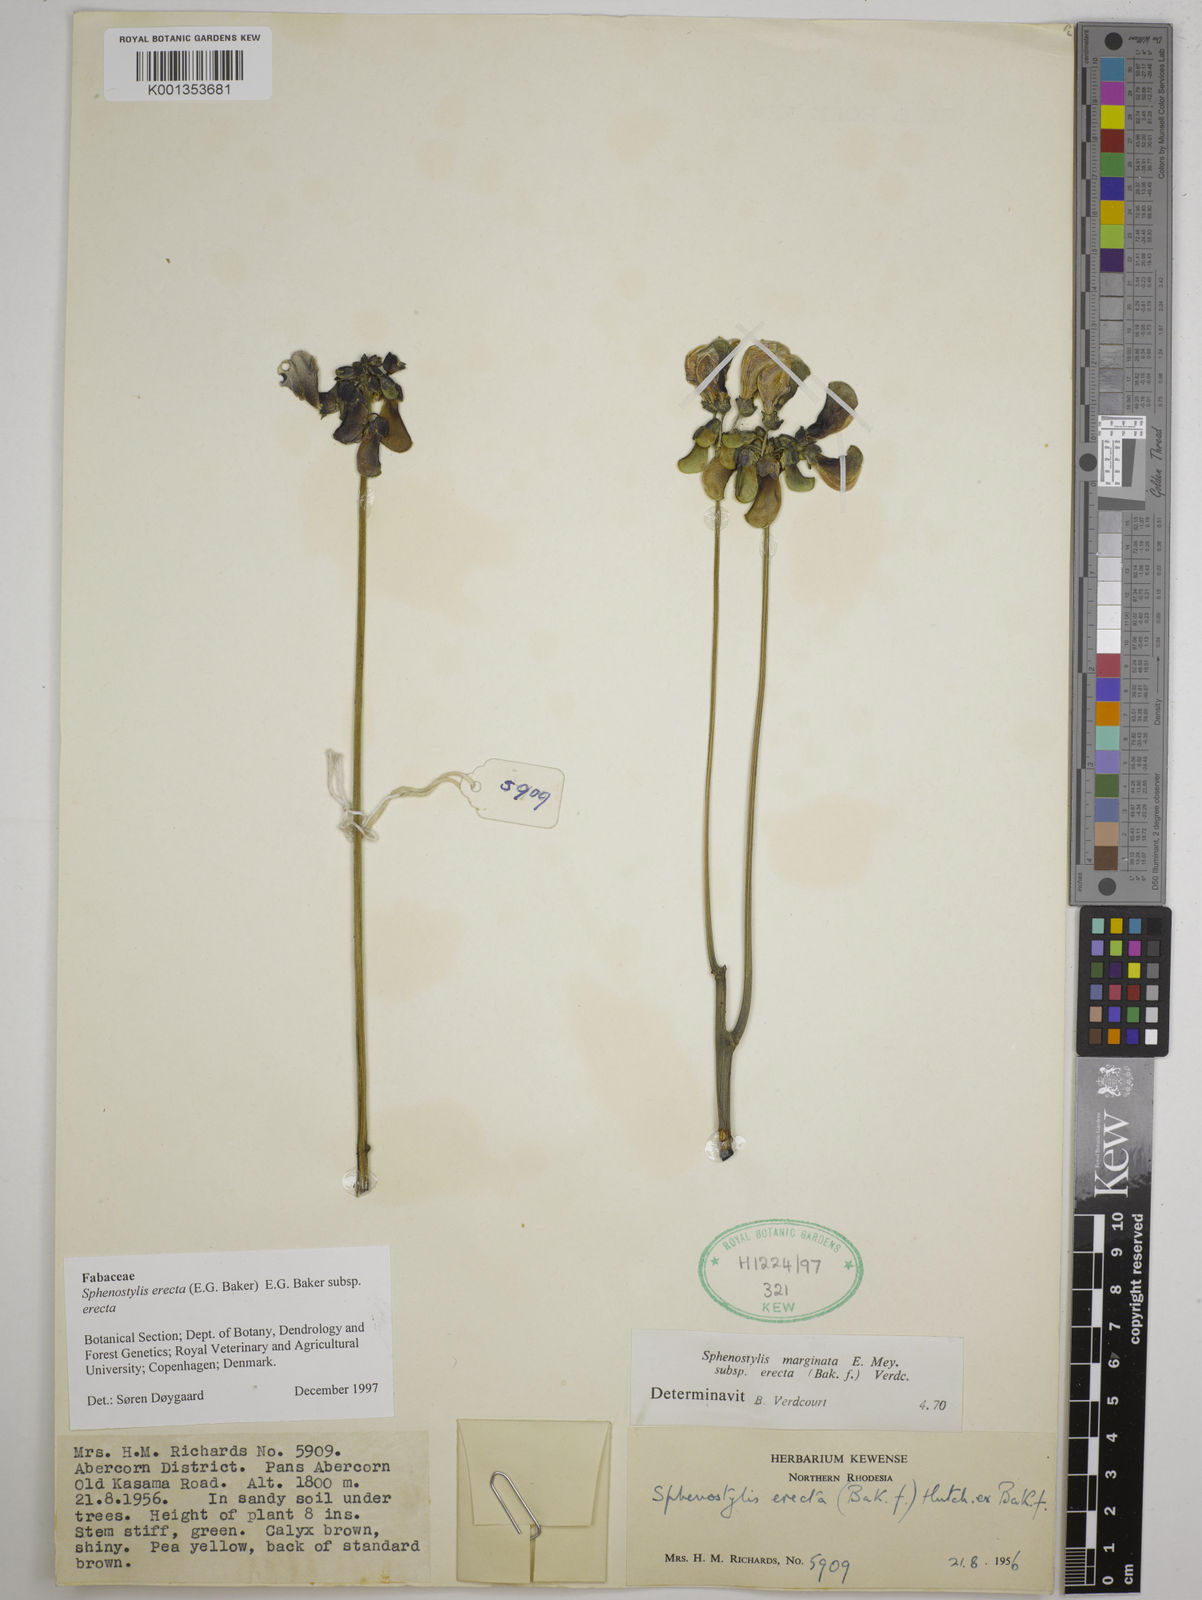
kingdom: Plantae
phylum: Tracheophyta
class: Magnoliopsida
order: Fabales
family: Fabaceae
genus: Sphenostylis
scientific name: Sphenostylis erecta
